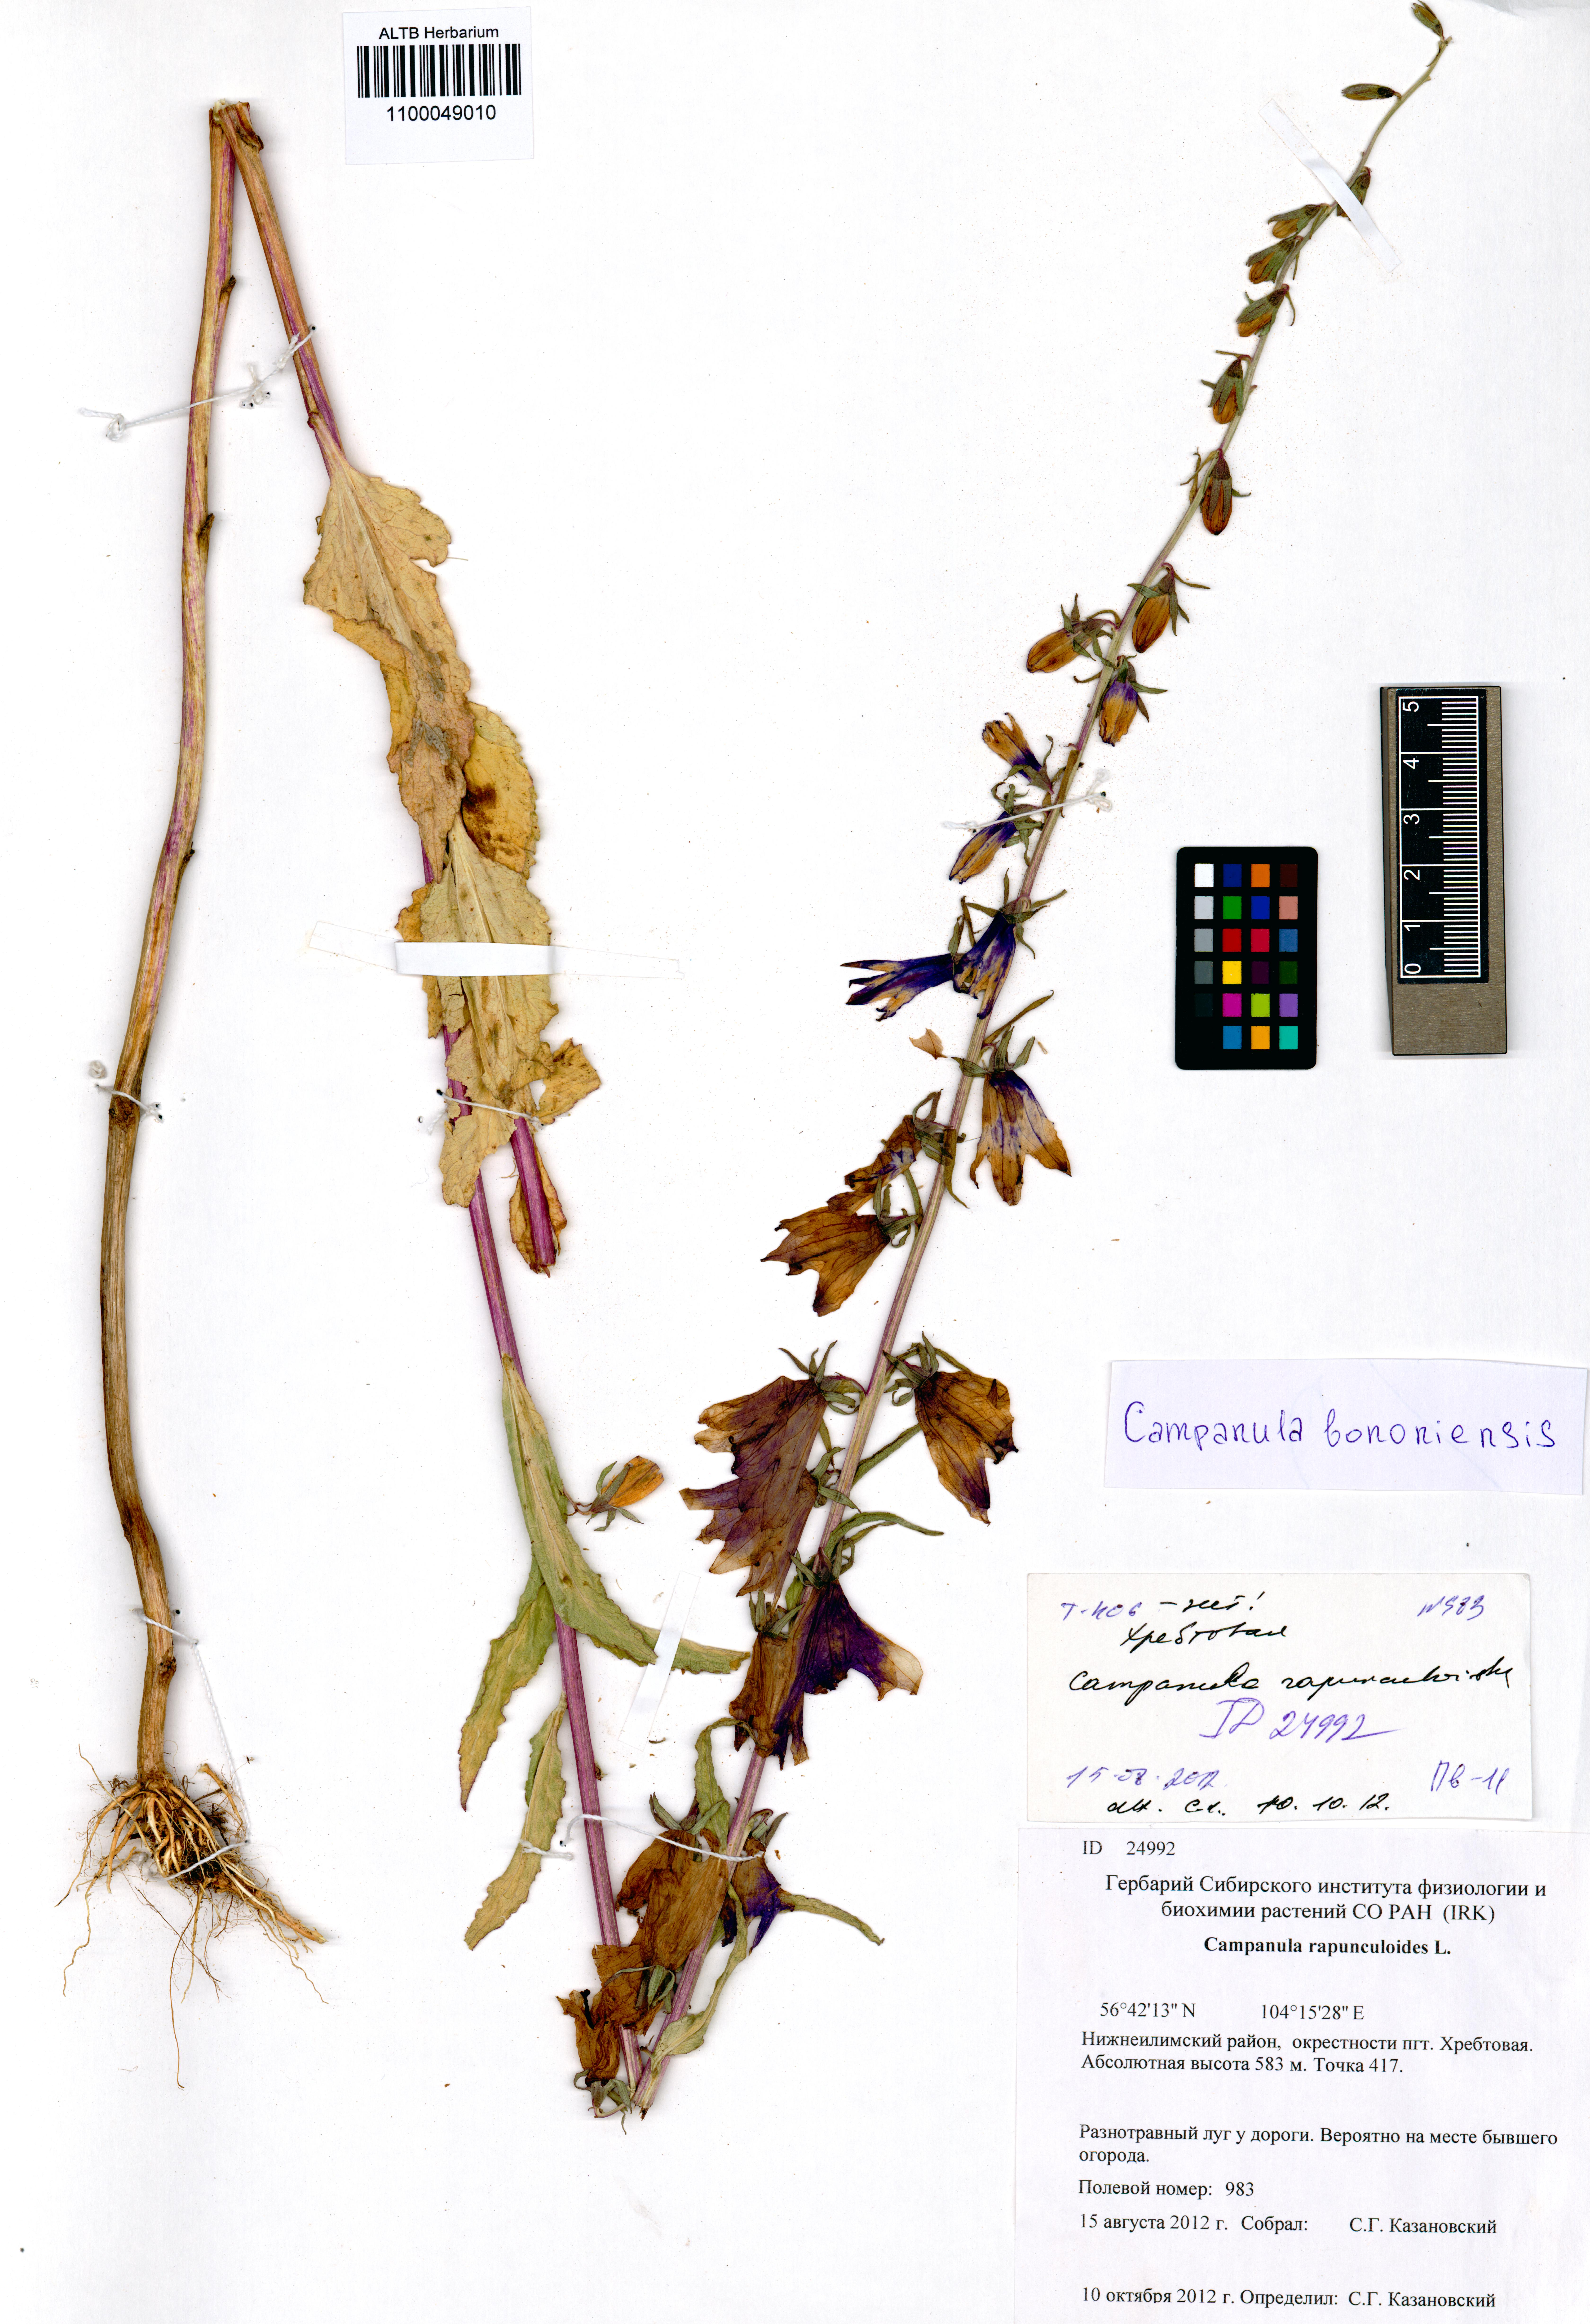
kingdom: Plantae
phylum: Tracheophyta
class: Magnoliopsida
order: Asterales
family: Campanulaceae
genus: Campanula
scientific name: Campanula bononiensis
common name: Pale bellflower
